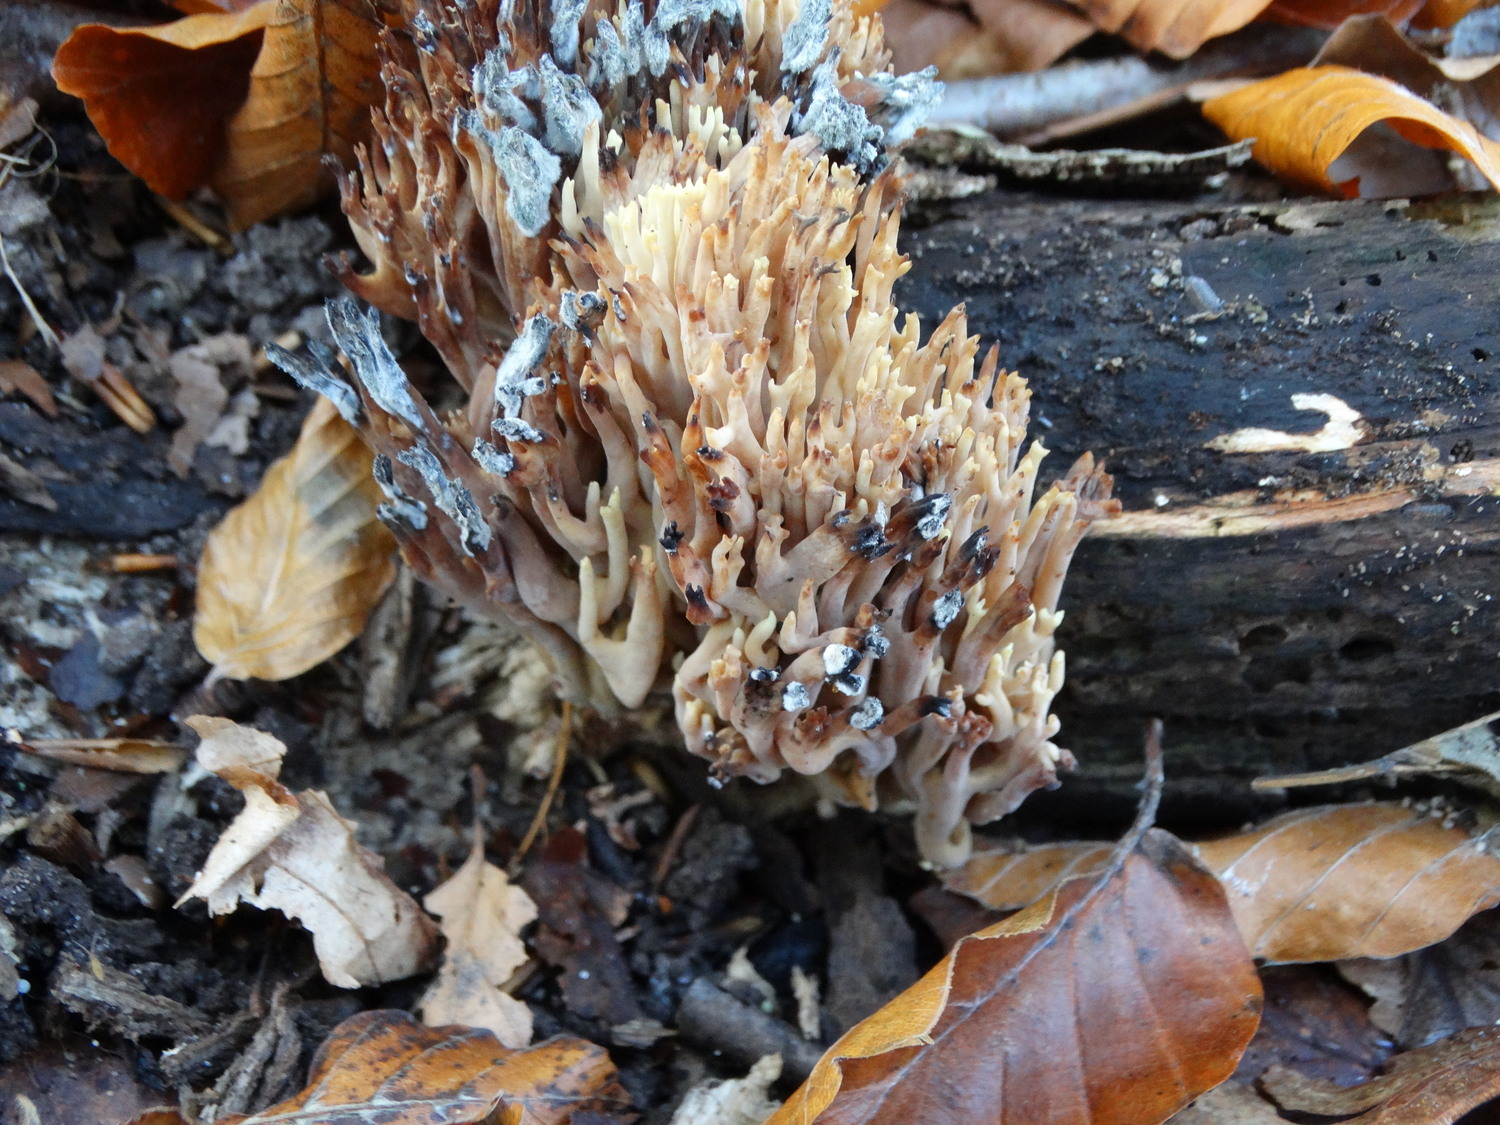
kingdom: Fungi
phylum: Basidiomycota
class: Agaricomycetes
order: Gomphales
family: Gomphaceae
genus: Ramaria
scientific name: Ramaria stricta
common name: rank koralsvamp
